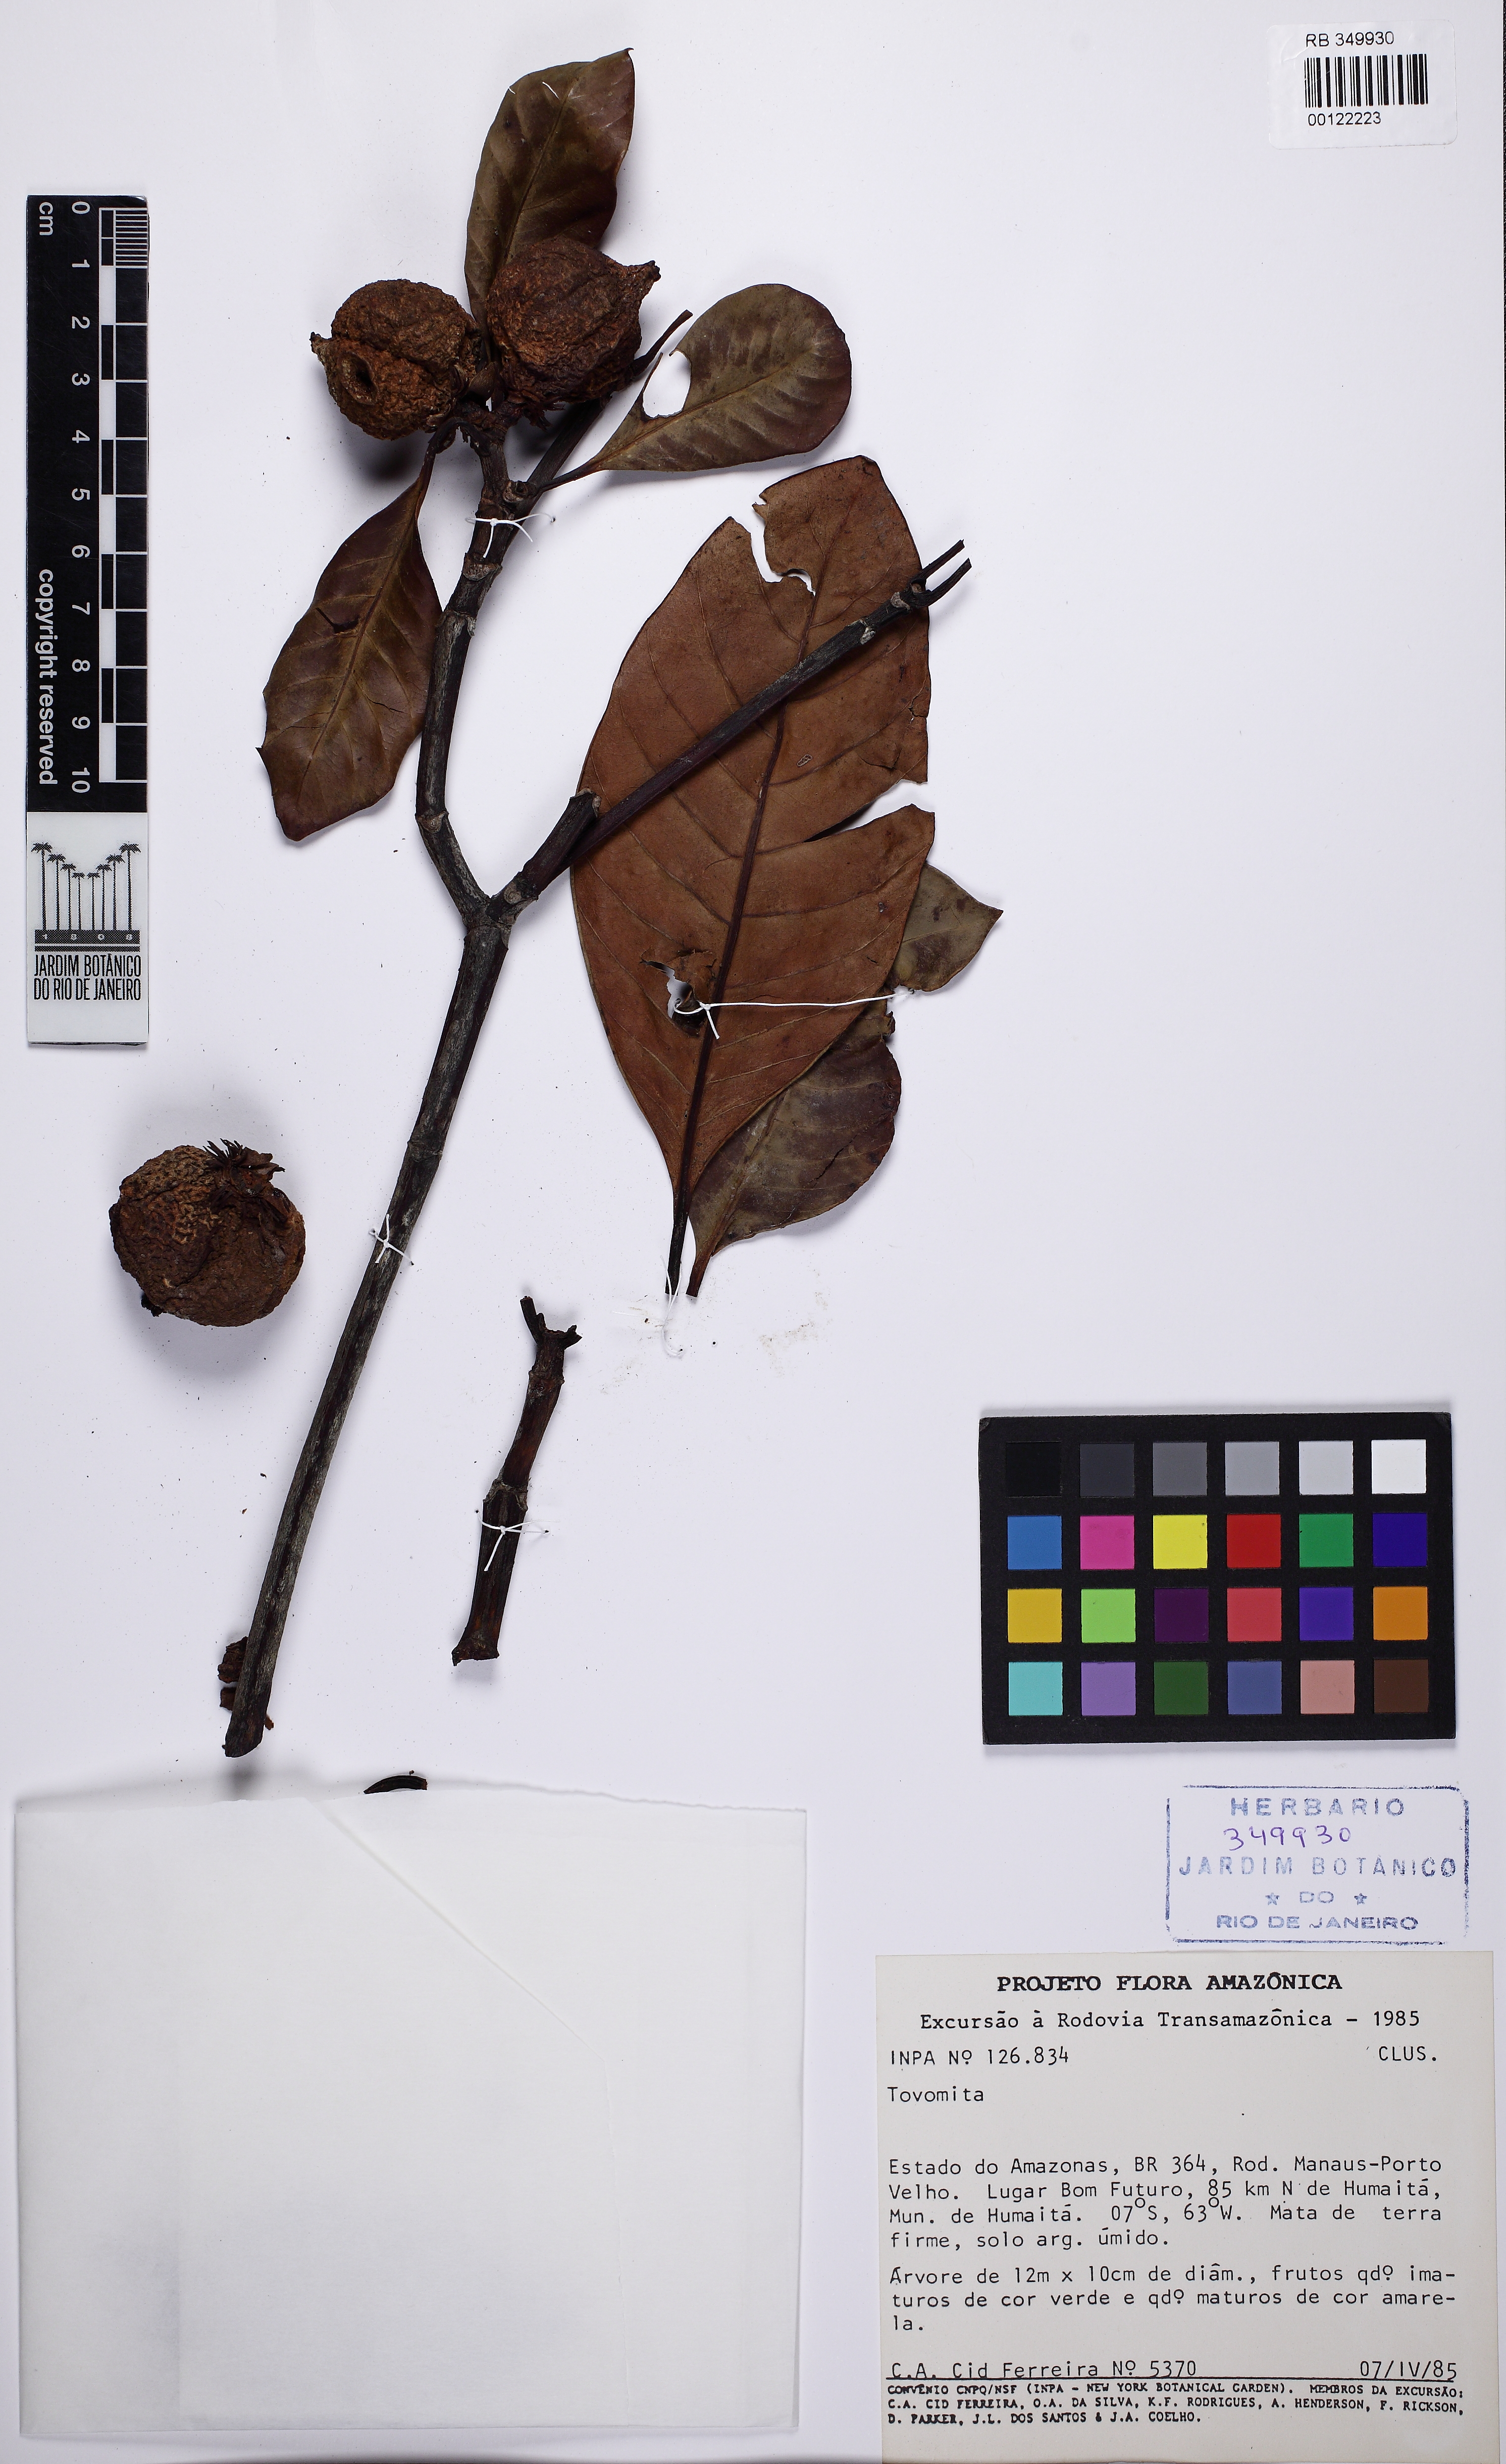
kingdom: Plantae
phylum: Tracheophyta
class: Magnoliopsida
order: Malpighiales
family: Clusiaceae
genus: Tovomita
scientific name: Tovomita macrophylla
